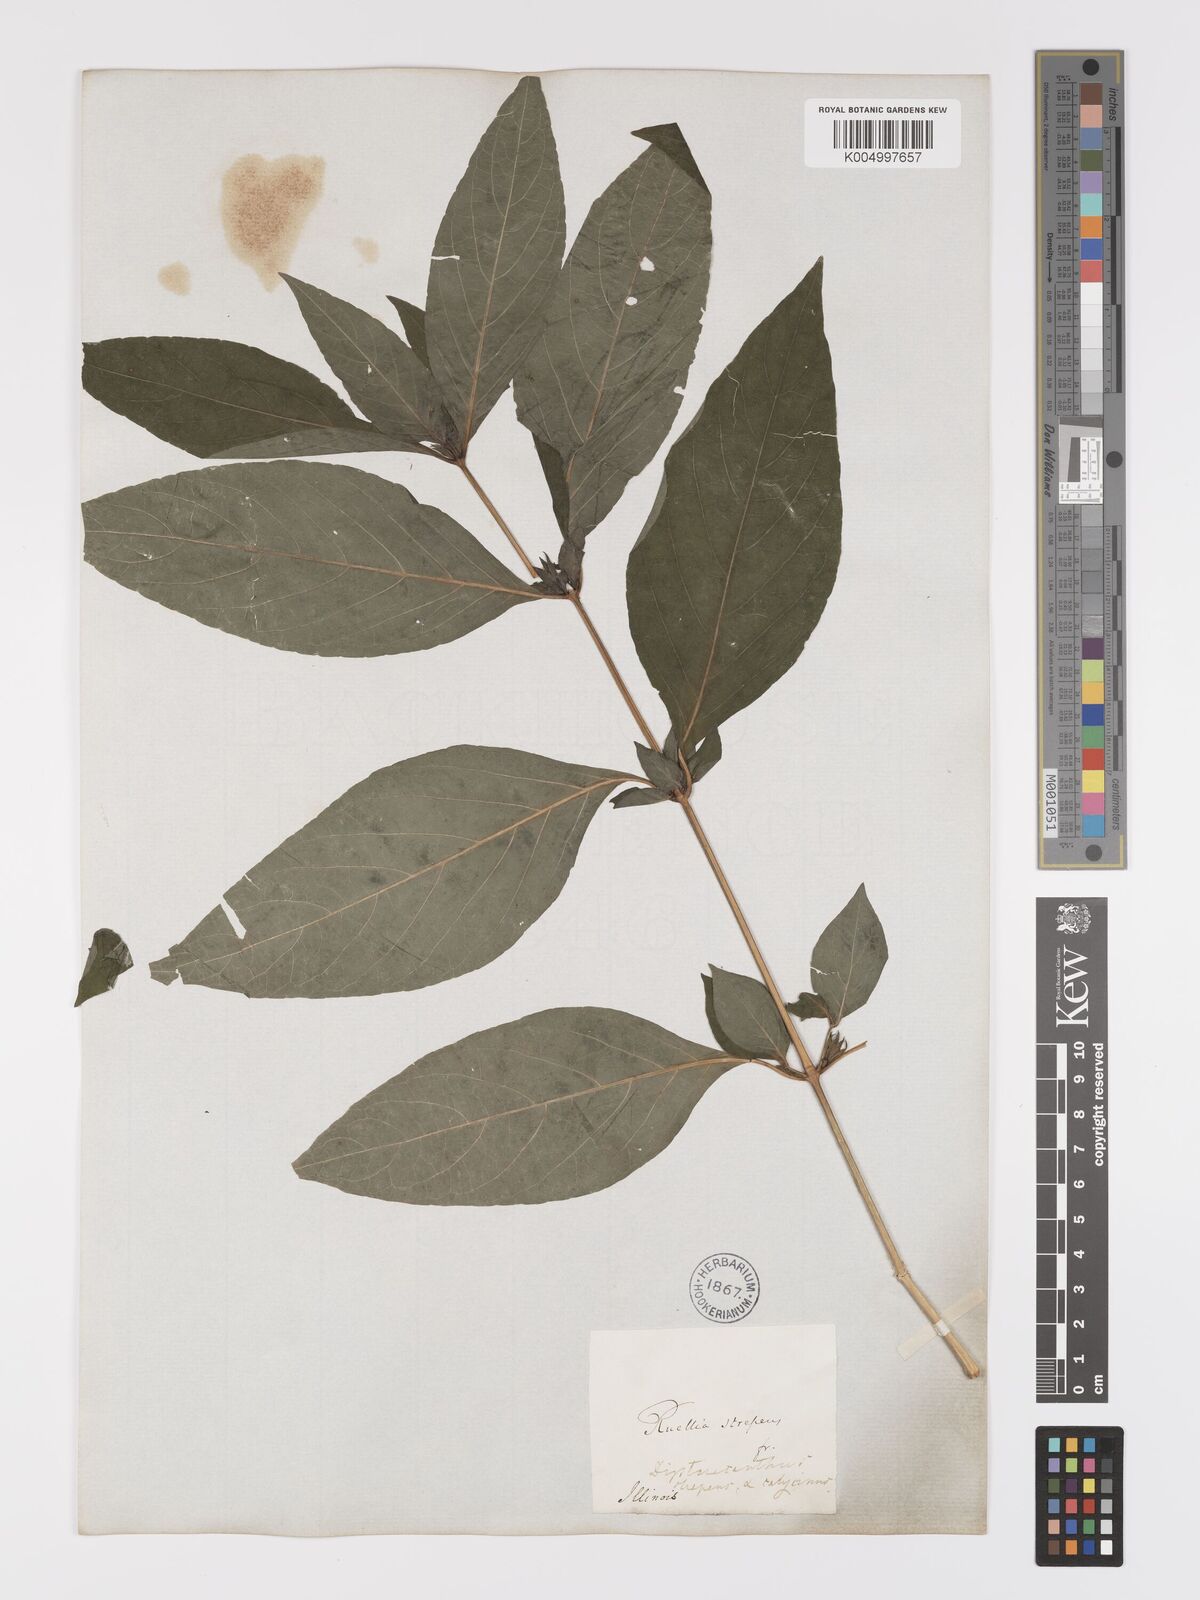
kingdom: Plantae
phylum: Tracheophyta
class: Magnoliopsida
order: Lamiales
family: Acanthaceae
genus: Ruellia
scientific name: Ruellia strepens
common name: Limestone wild petunia
